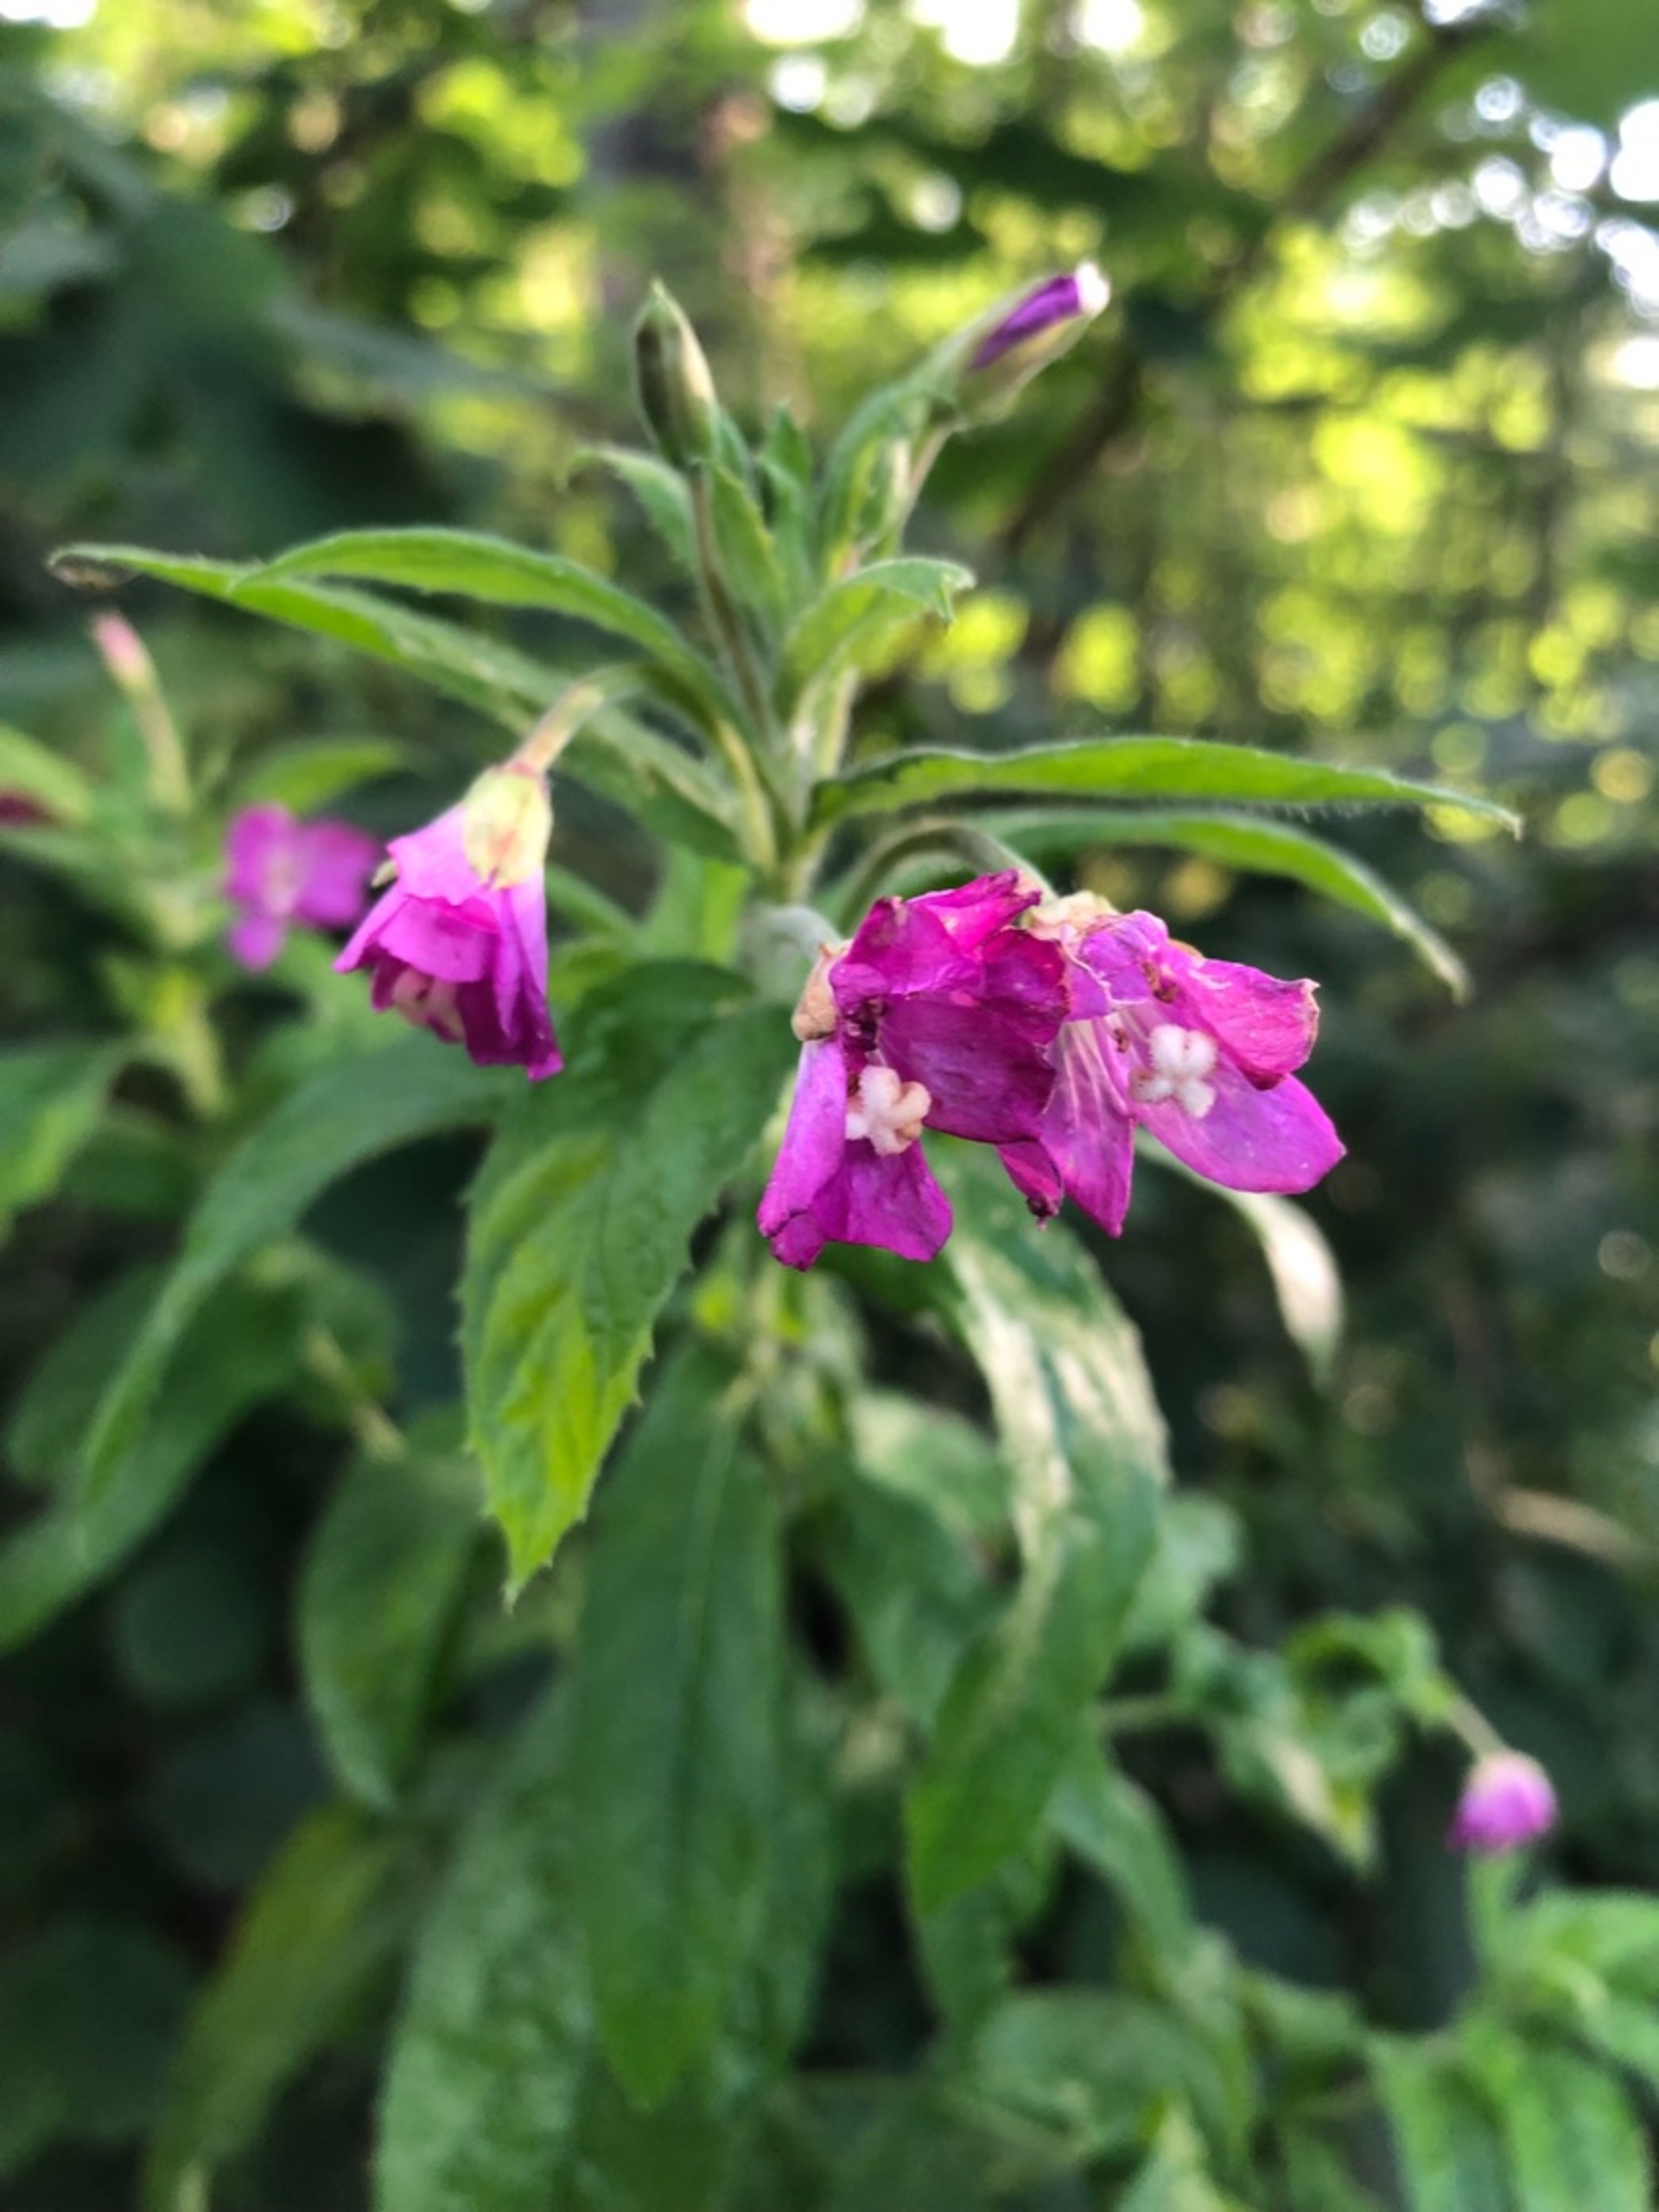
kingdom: Plantae
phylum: Tracheophyta
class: Magnoliopsida
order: Myrtales
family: Onagraceae
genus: Epilobium
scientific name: Epilobium hirsutum
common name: Lådden dueurt
